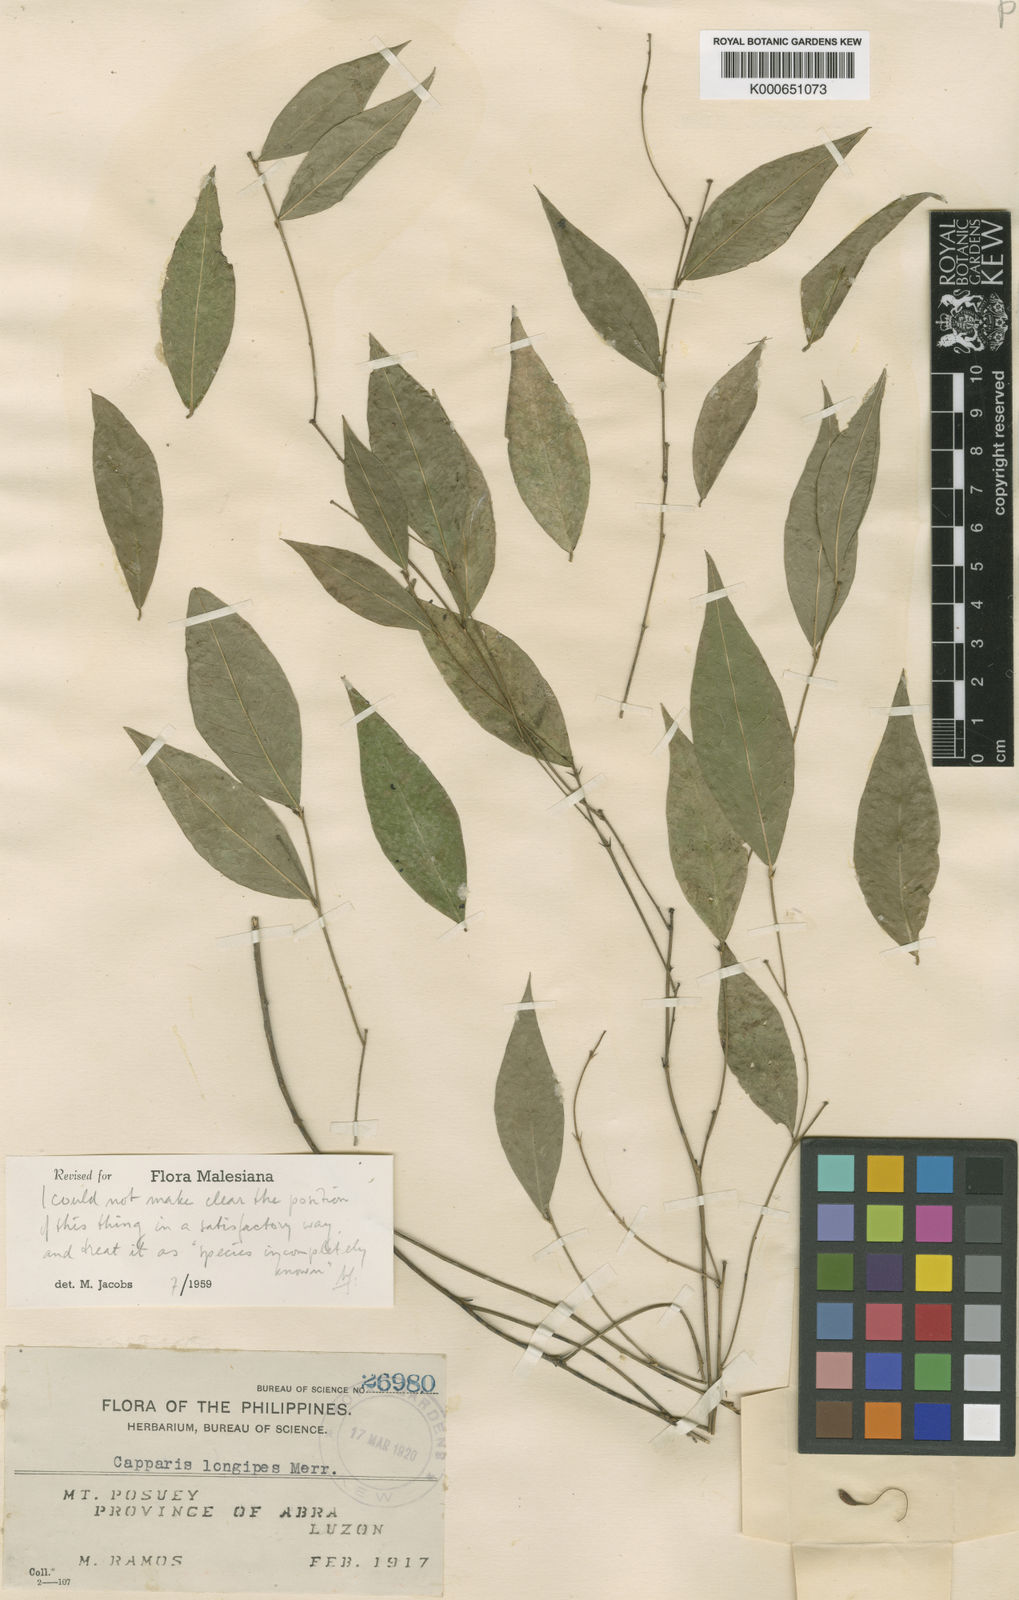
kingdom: Plantae
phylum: Tracheophyta
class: Magnoliopsida
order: Brassicales
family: Capparaceae
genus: Capparis
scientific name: Capparis pubiflora
